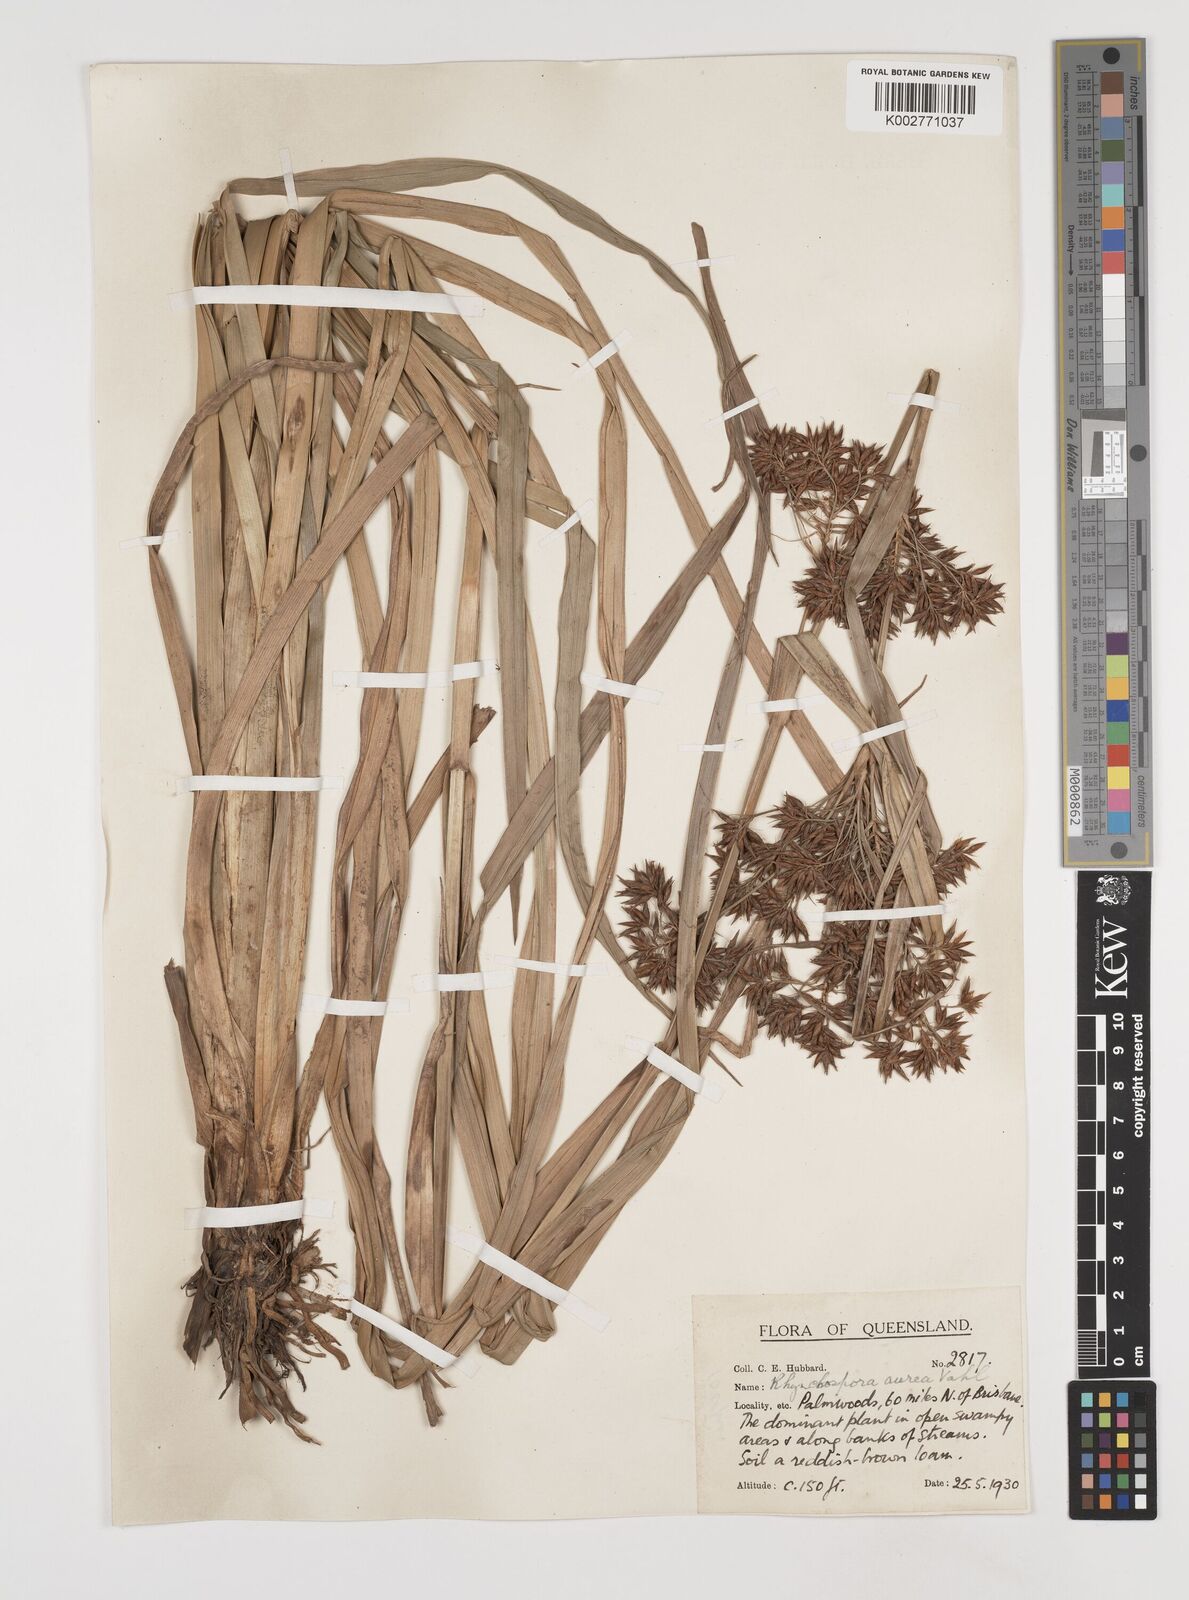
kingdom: Plantae
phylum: Tracheophyta
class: Liliopsida
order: Poales
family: Cyperaceae
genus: Rhynchospora
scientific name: Rhynchospora corymbosa
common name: Golden beak sedge
